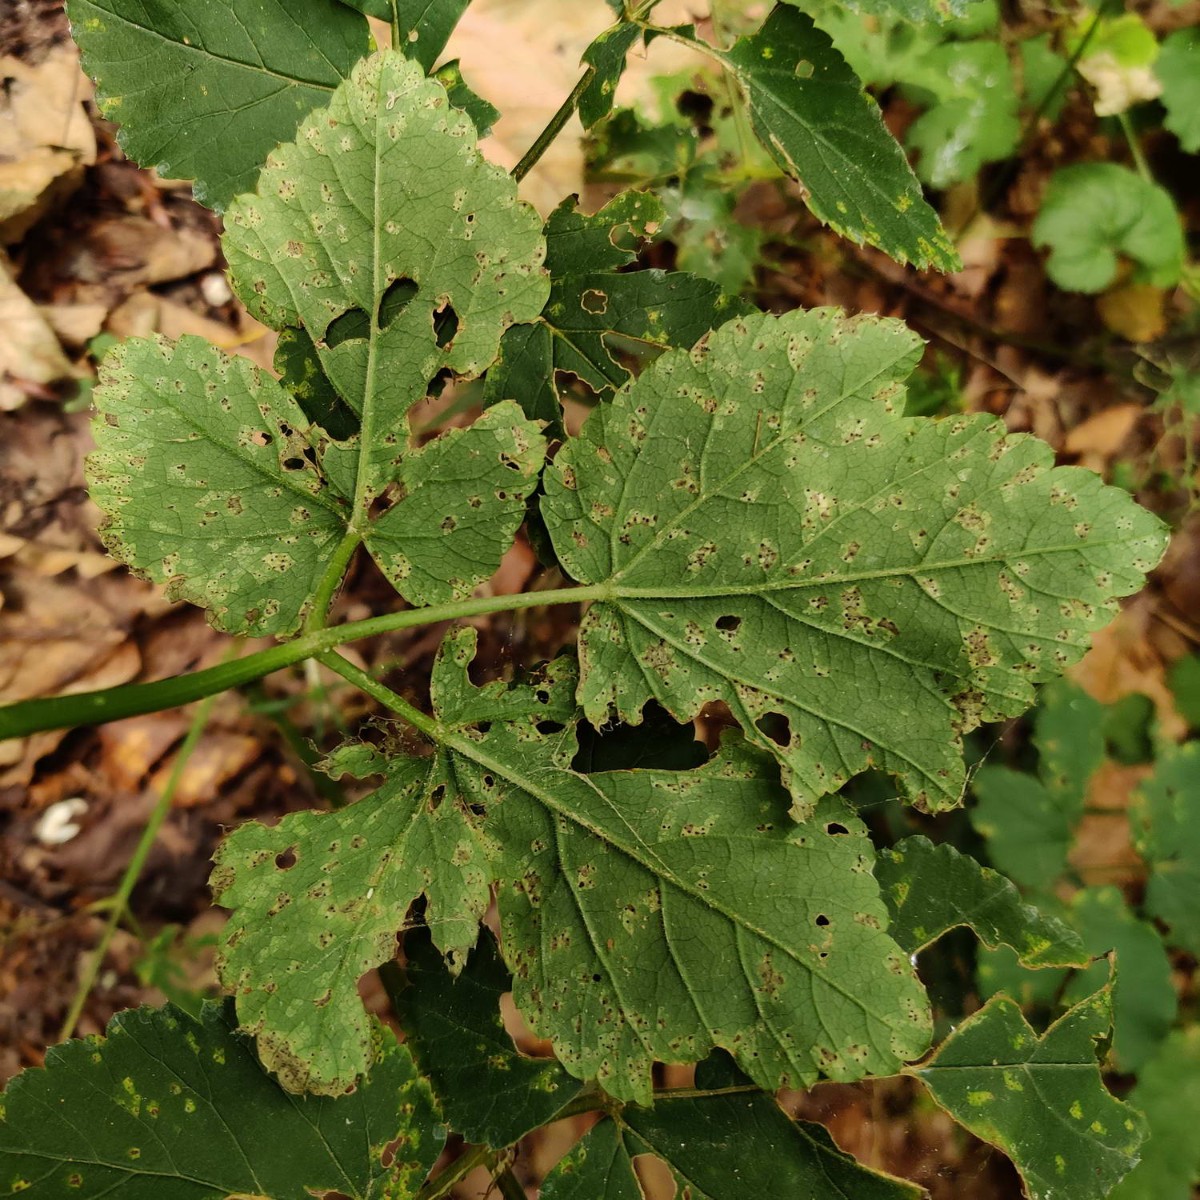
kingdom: Fungi
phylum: Basidiomycota
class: Pucciniomycetes
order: Pucciniales
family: Pucciniaceae
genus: Puccinia
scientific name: Puccinia
